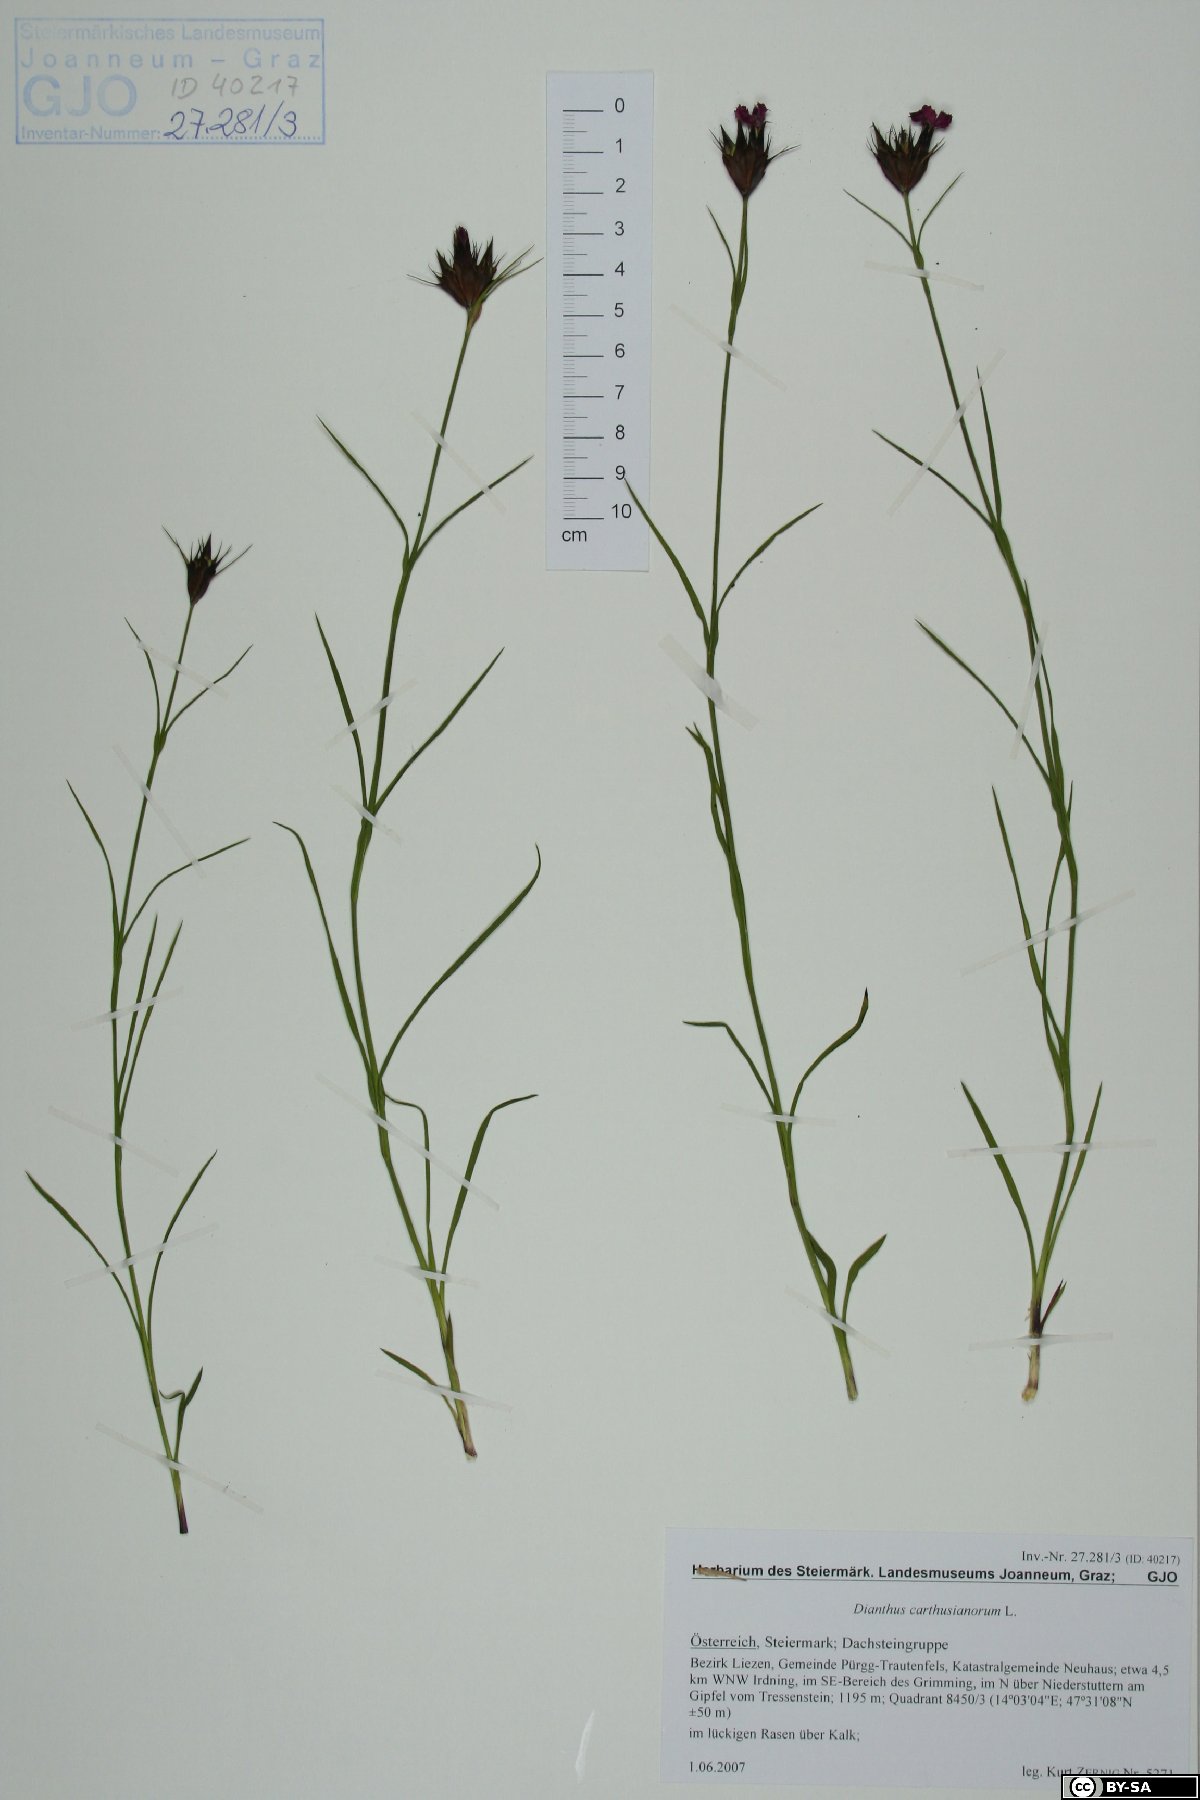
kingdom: Plantae
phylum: Tracheophyta
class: Magnoliopsida
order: Caryophyllales
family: Caryophyllaceae
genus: Dianthus
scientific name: Dianthus carthusianorum
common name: Carthusian pink
